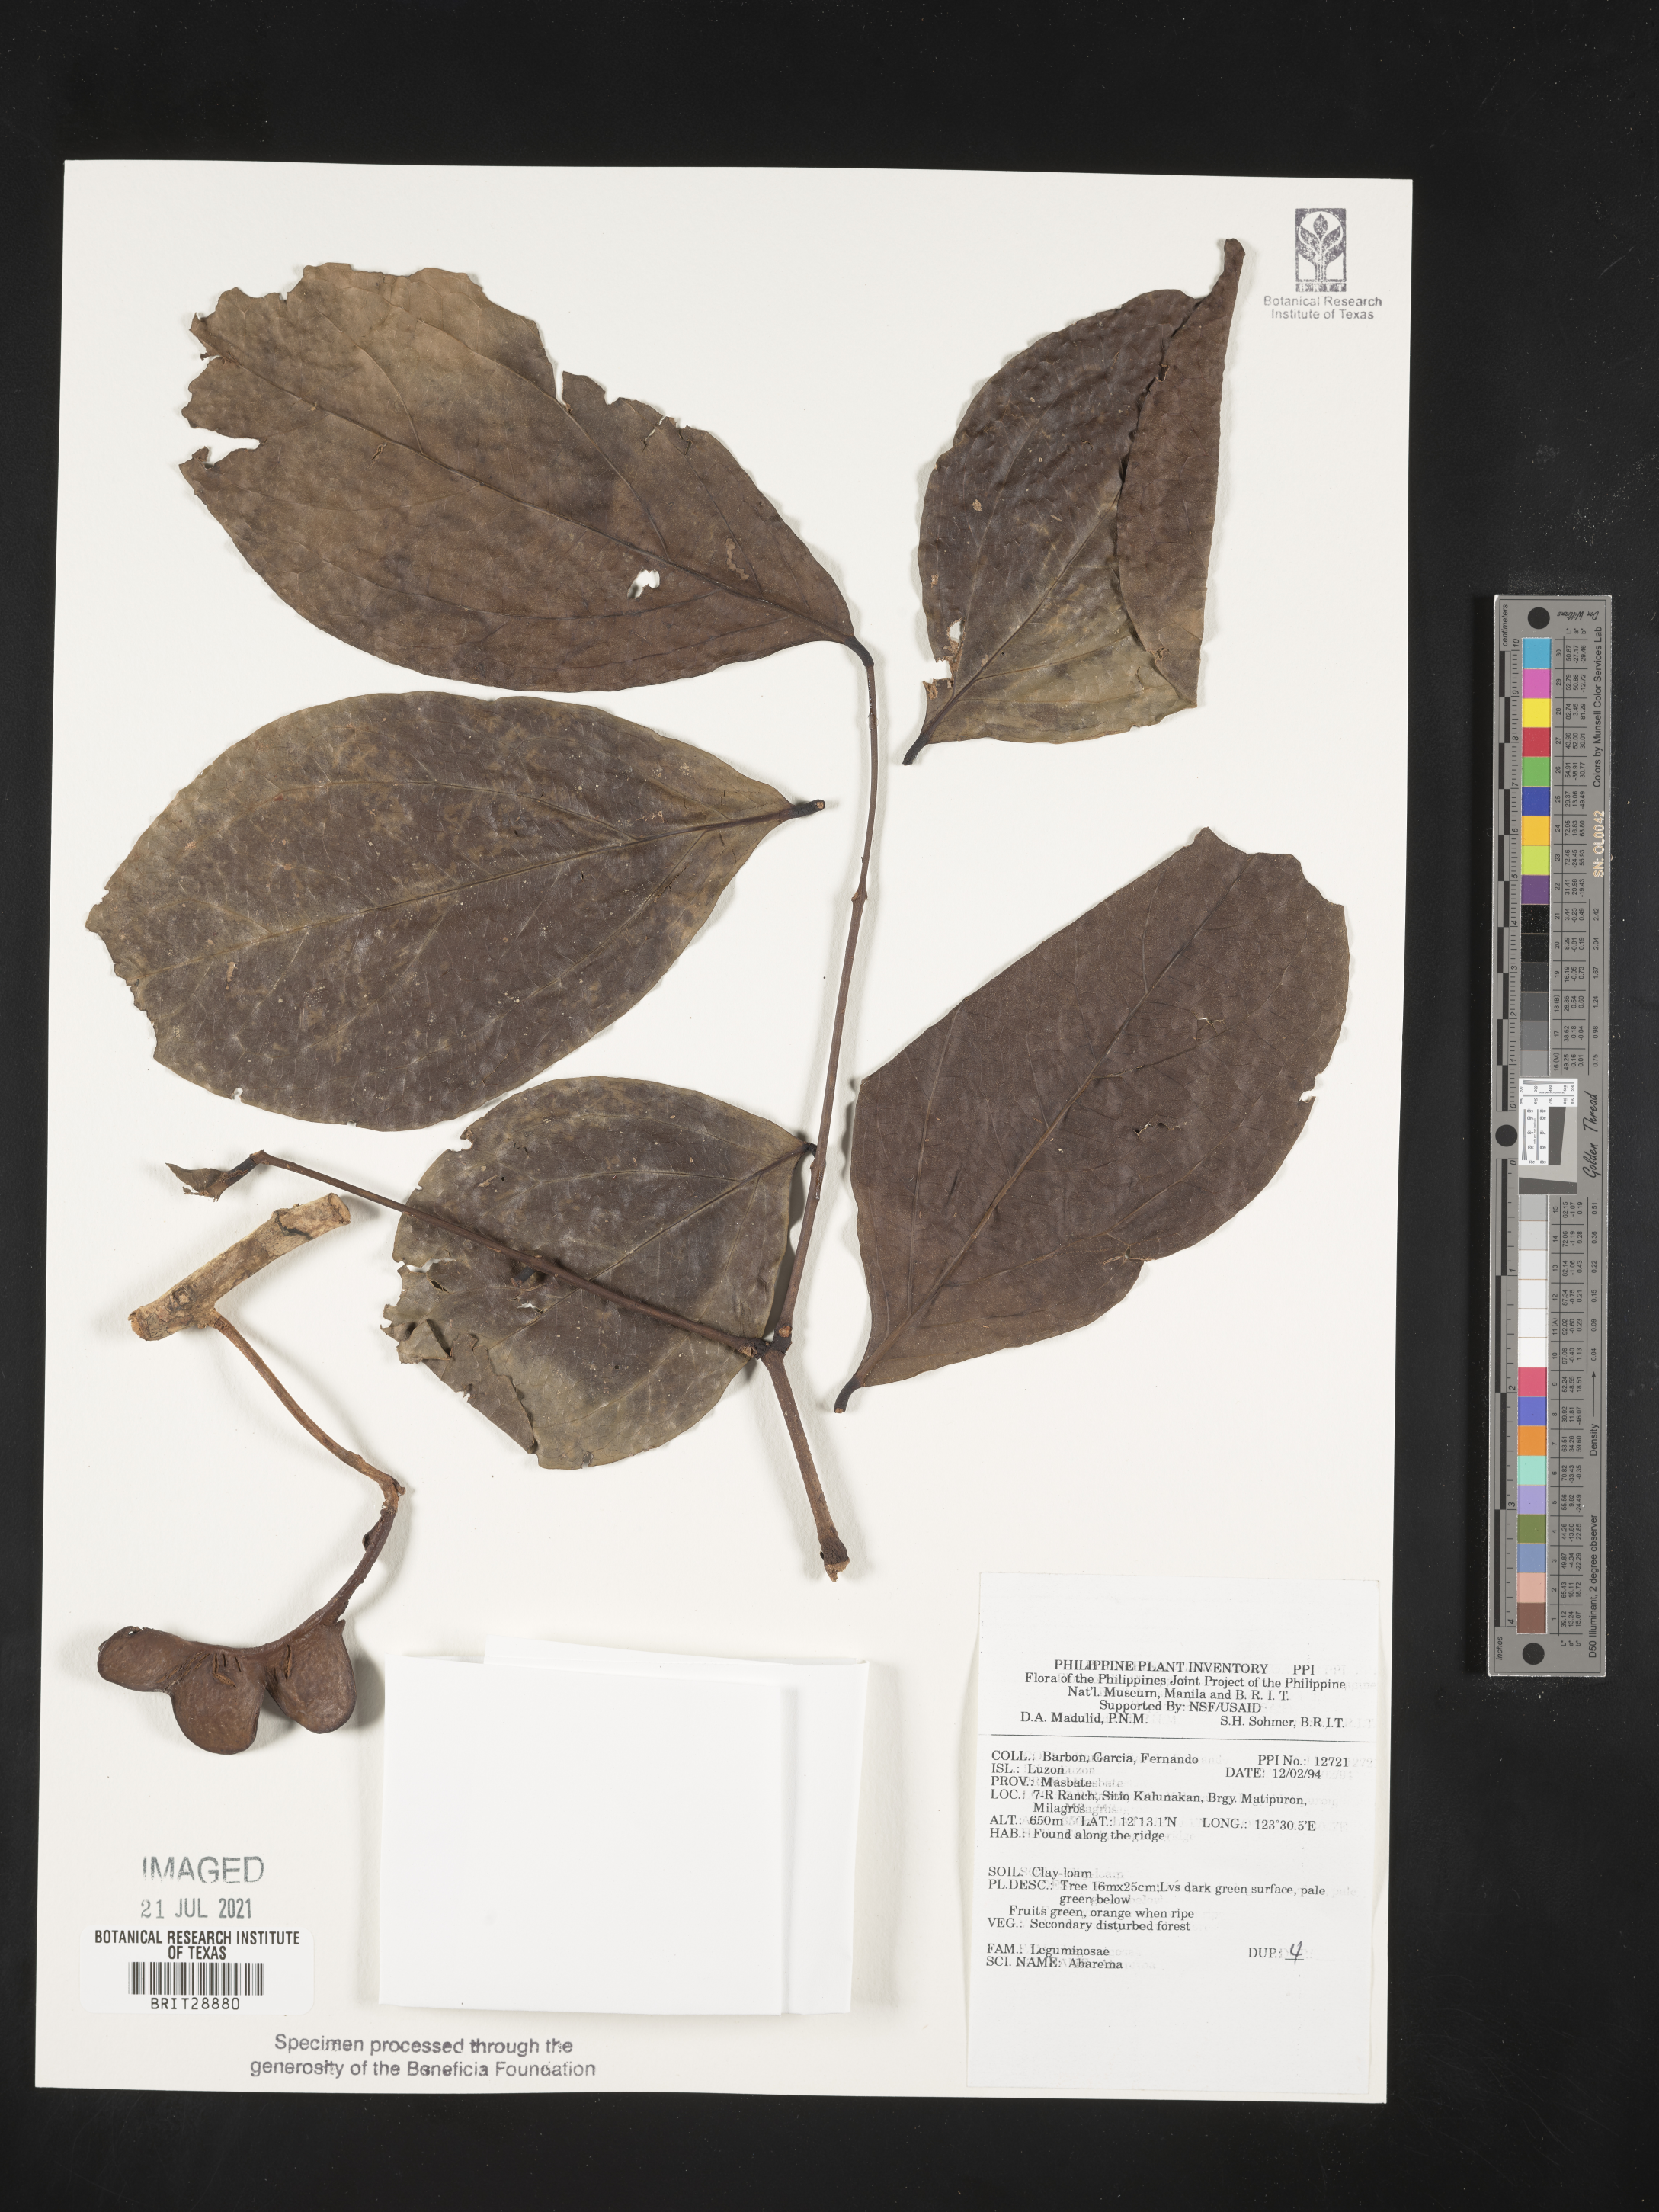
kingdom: Plantae
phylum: Tracheophyta
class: Magnoliopsida
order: Fabales
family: Fabaceae
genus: Abarema
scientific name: Abarema
